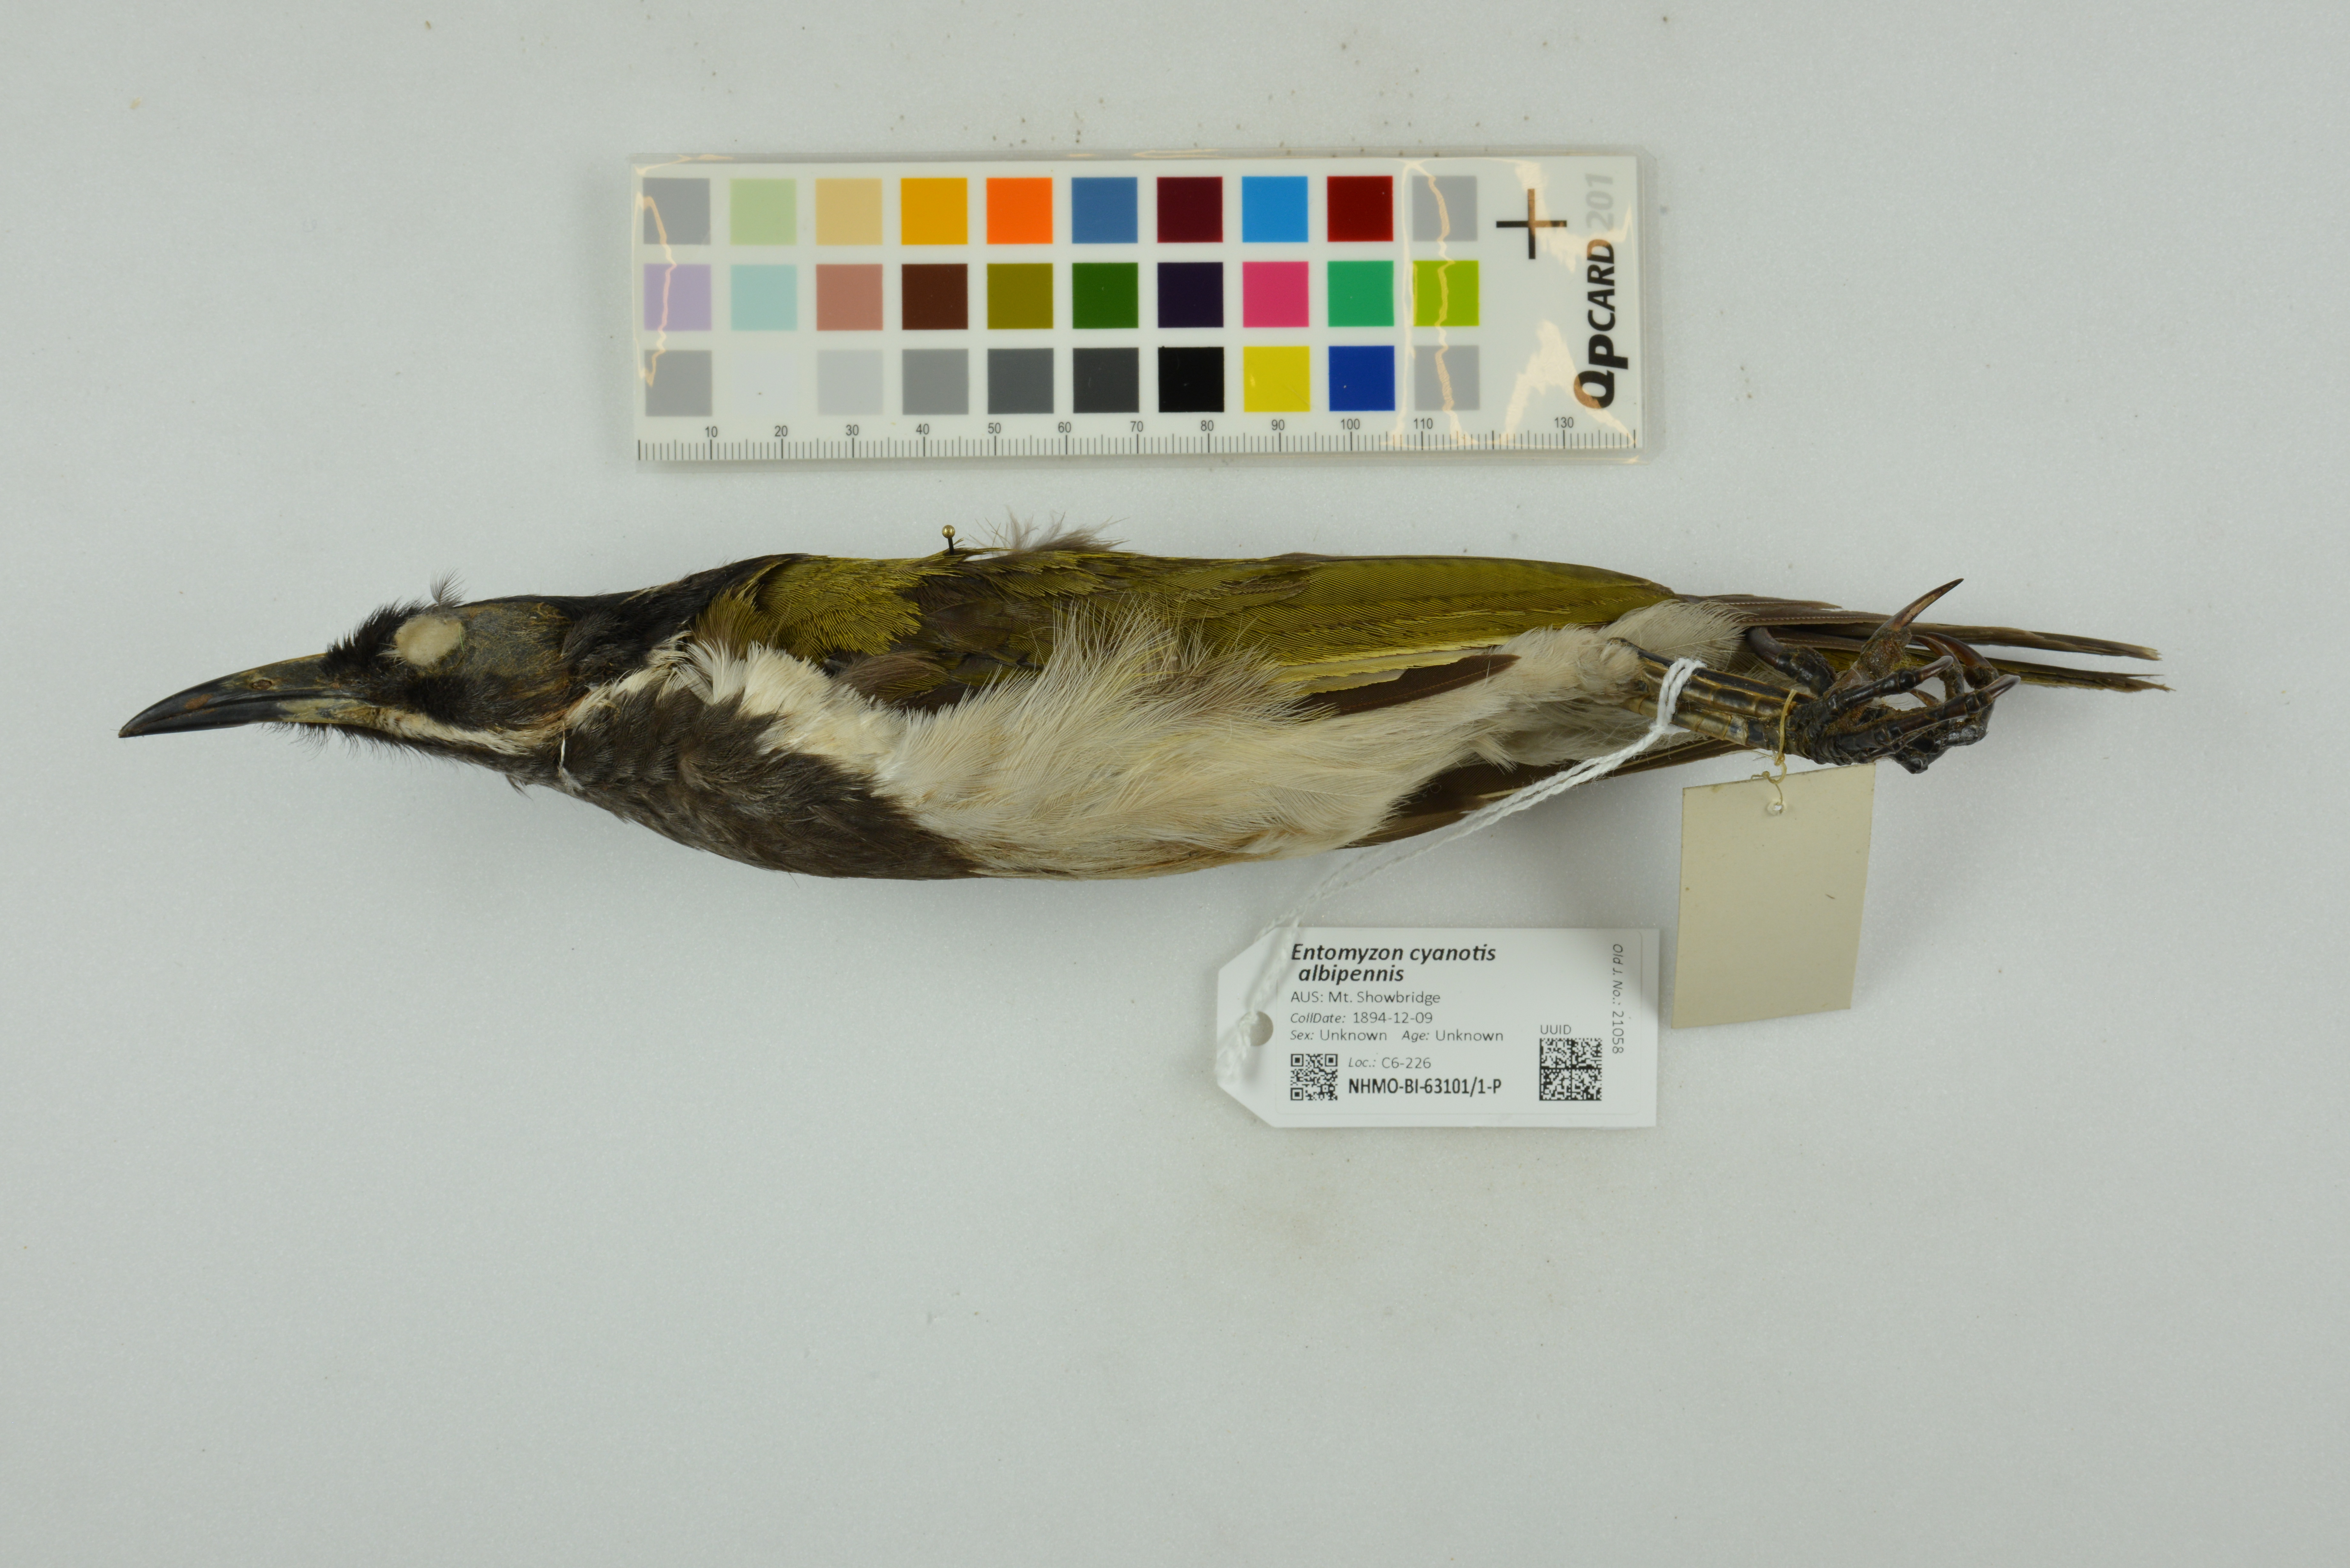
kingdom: Animalia
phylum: Chordata
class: Aves
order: Passeriformes
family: Meliphagidae
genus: Entomyzon
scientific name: Entomyzon cyanotis
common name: Blue-faced honeyeater
